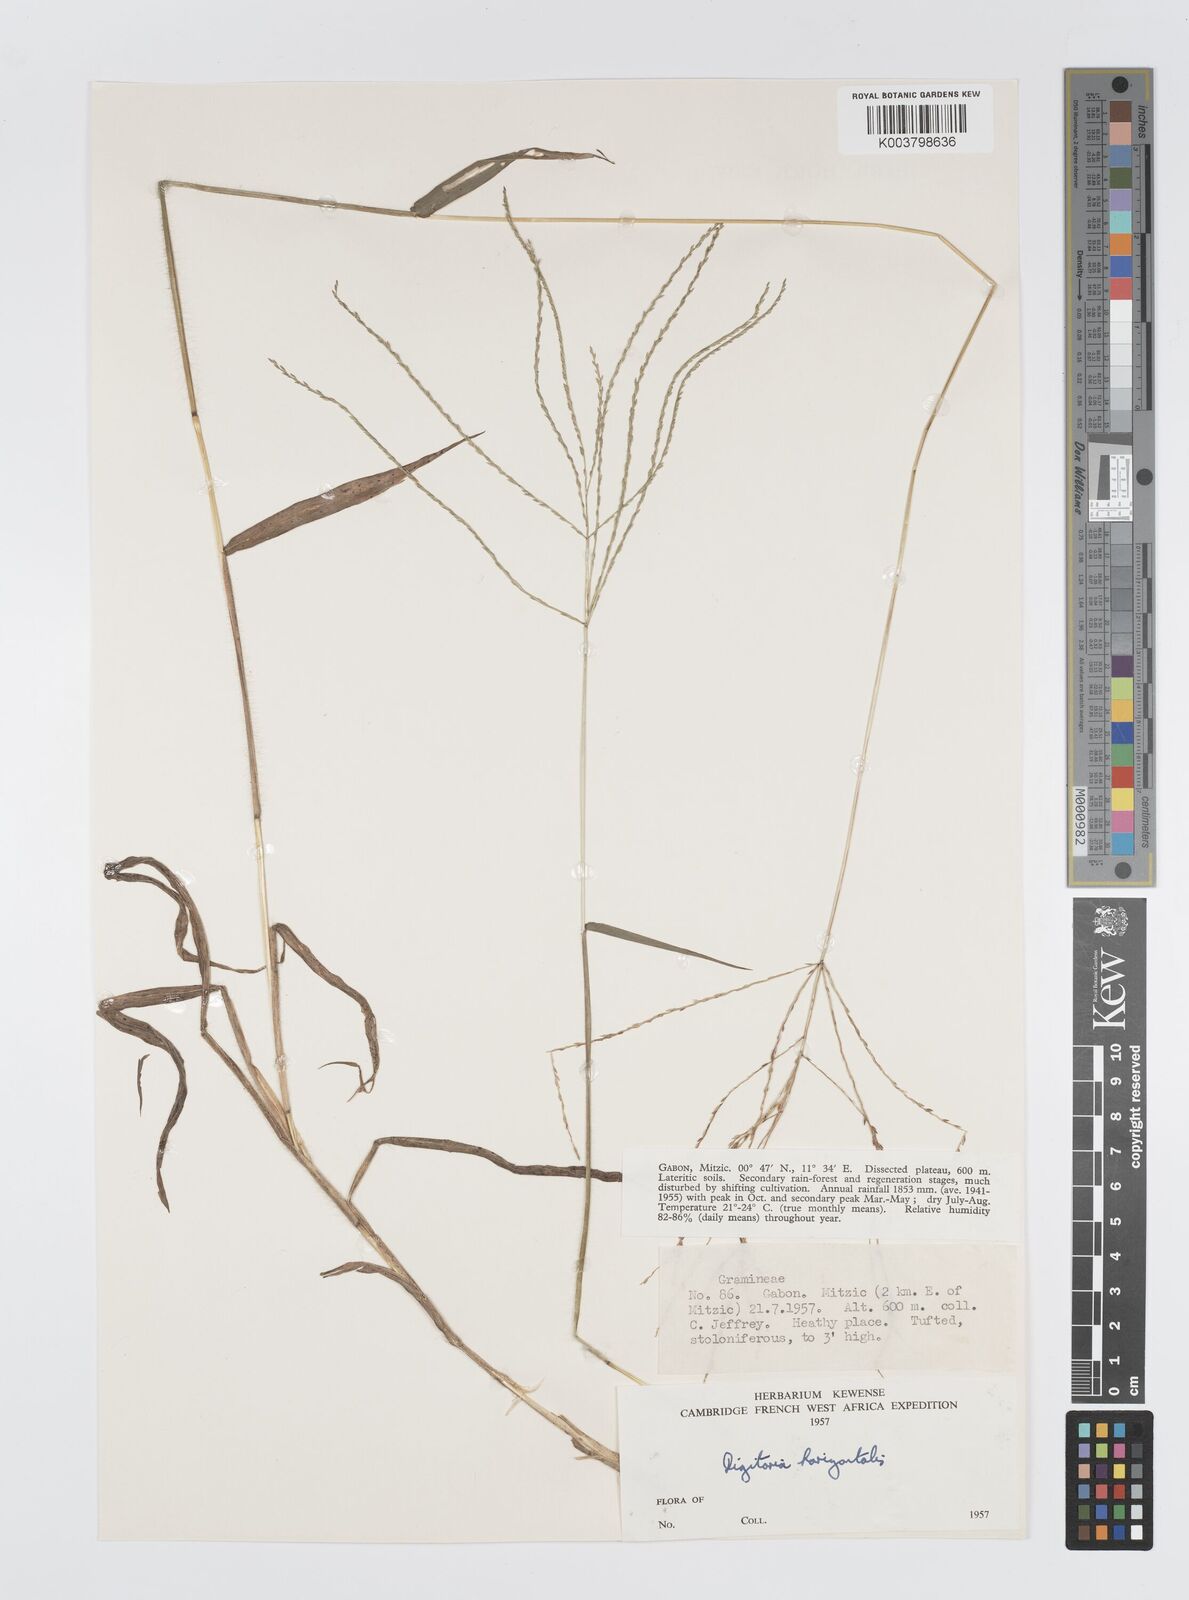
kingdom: Plantae
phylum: Tracheophyta
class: Liliopsida
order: Poales
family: Poaceae
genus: Digitaria
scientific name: Digitaria horizontalis
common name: Jamaican crabgrass
